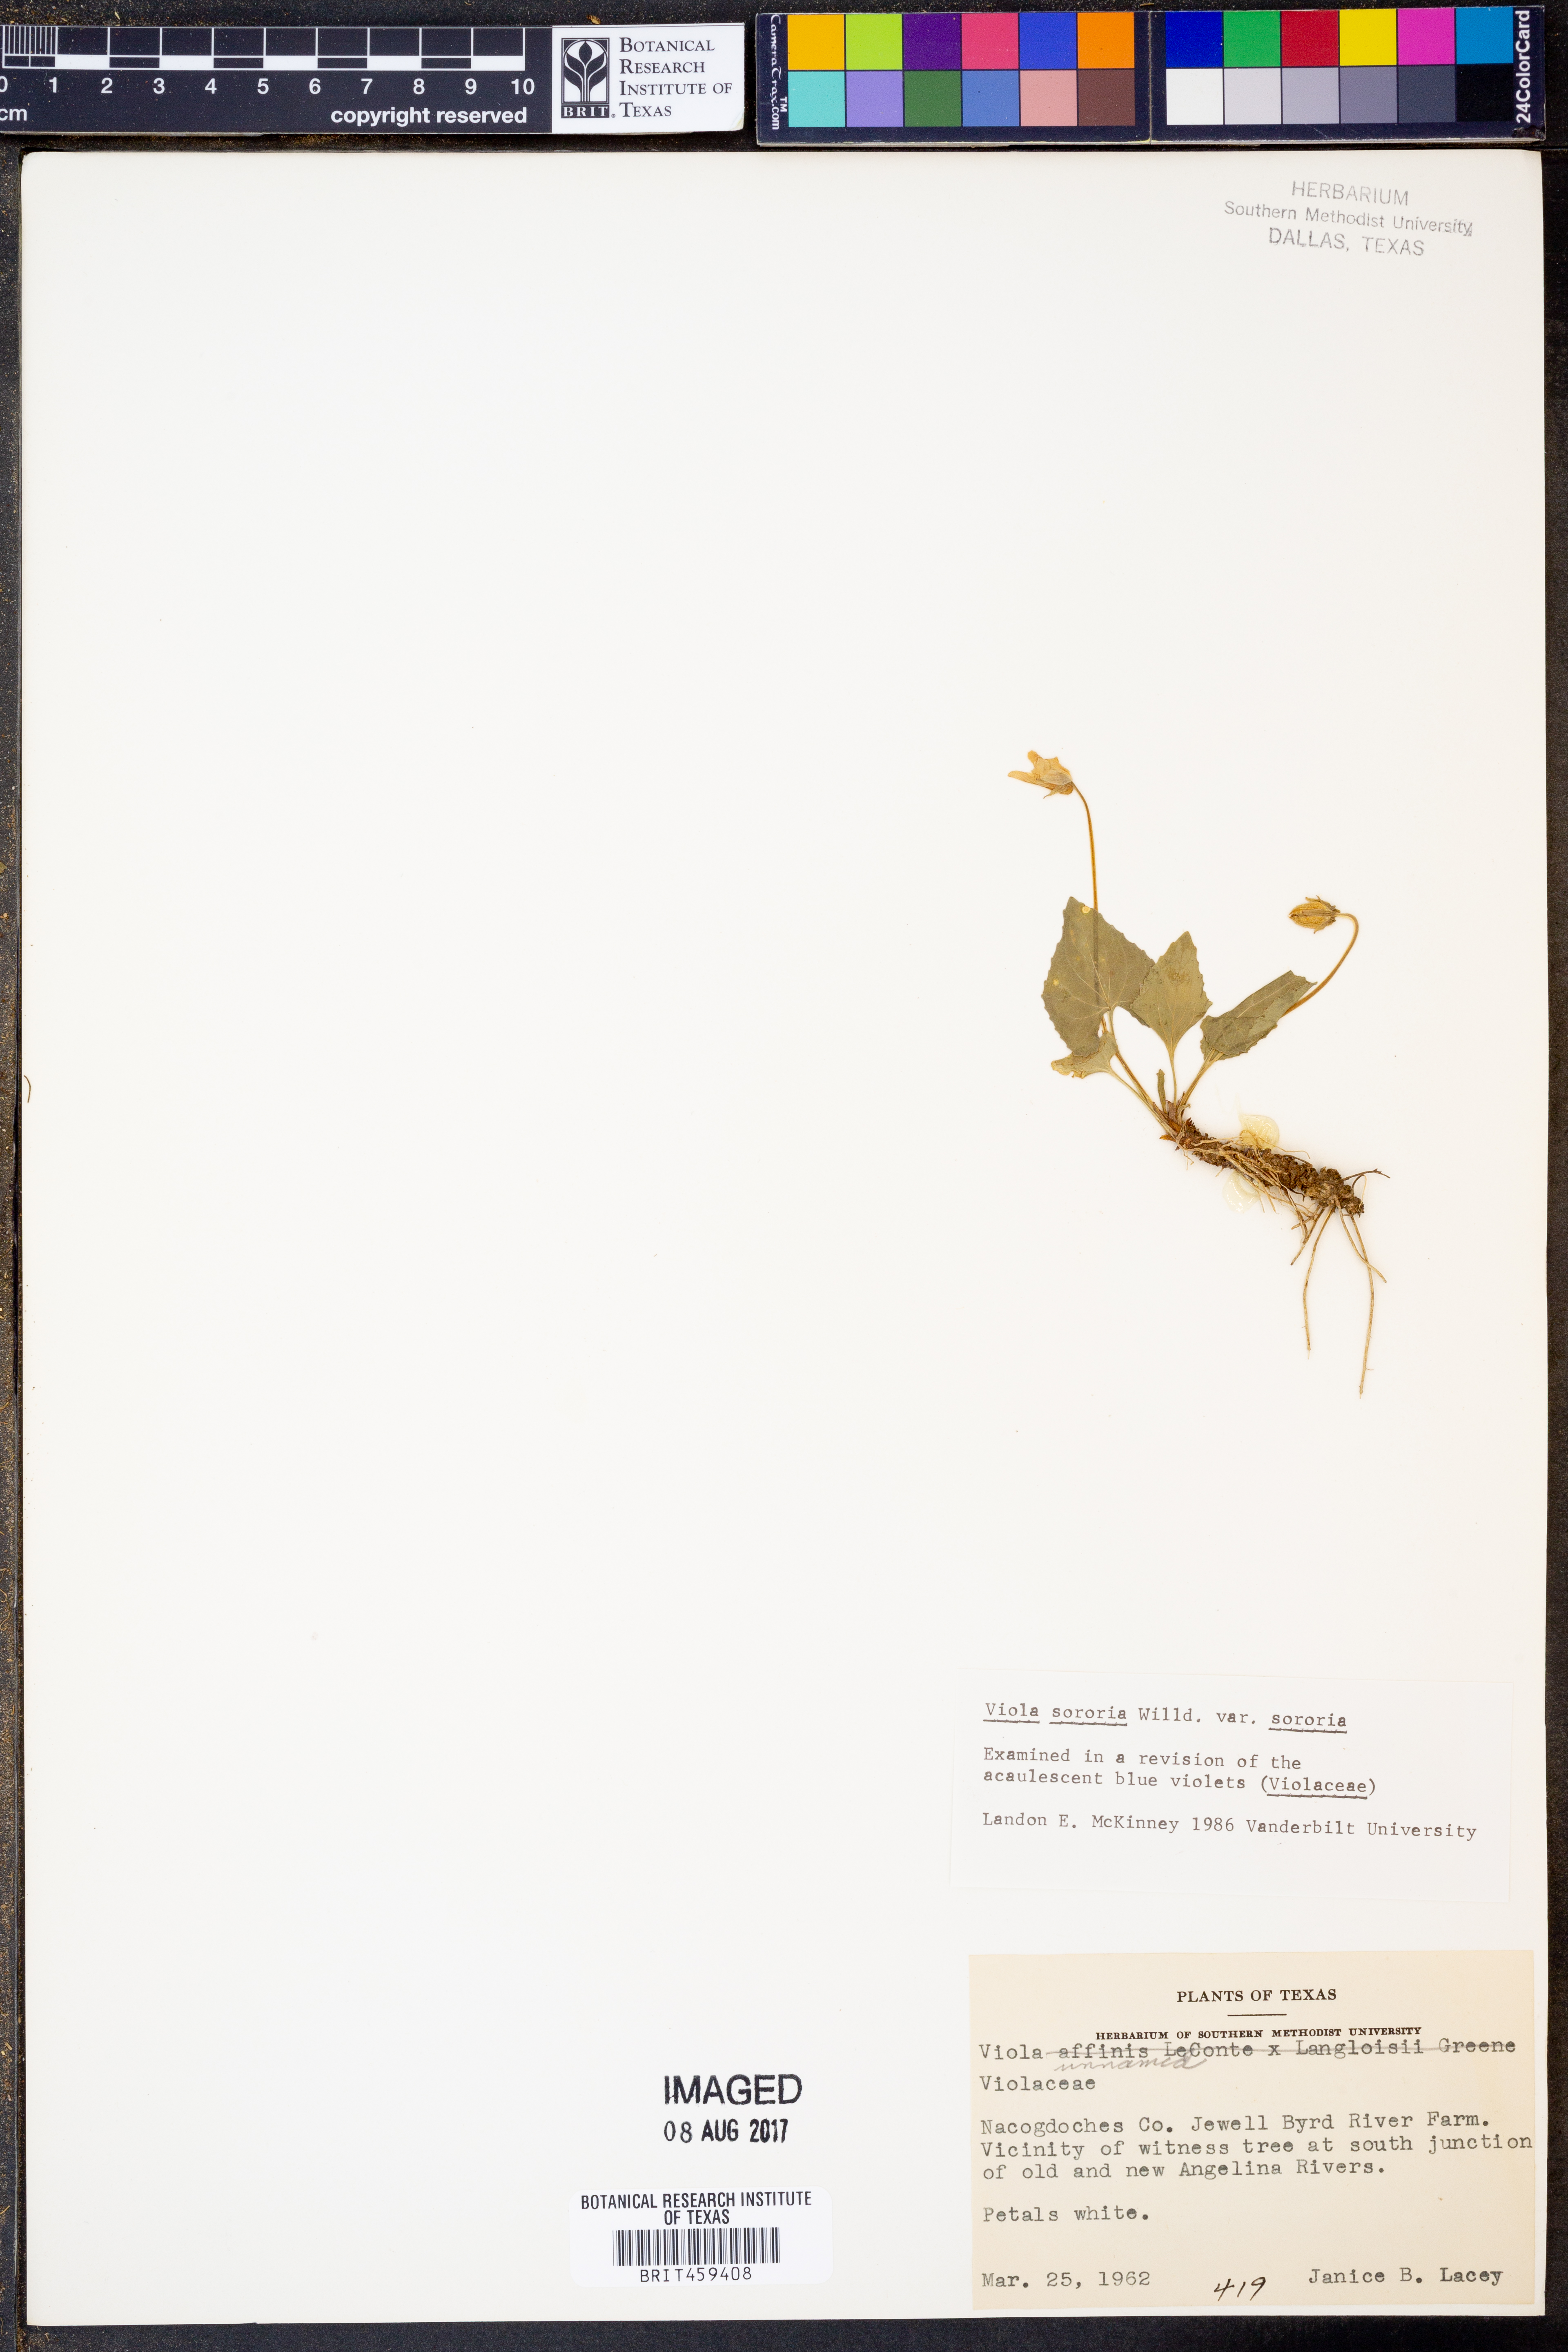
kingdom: Plantae
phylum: Tracheophyta
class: Magnoliopsida
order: Malpighiales
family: Violaceae
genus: Viola
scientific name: Viola sororia
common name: Dooryard violet
